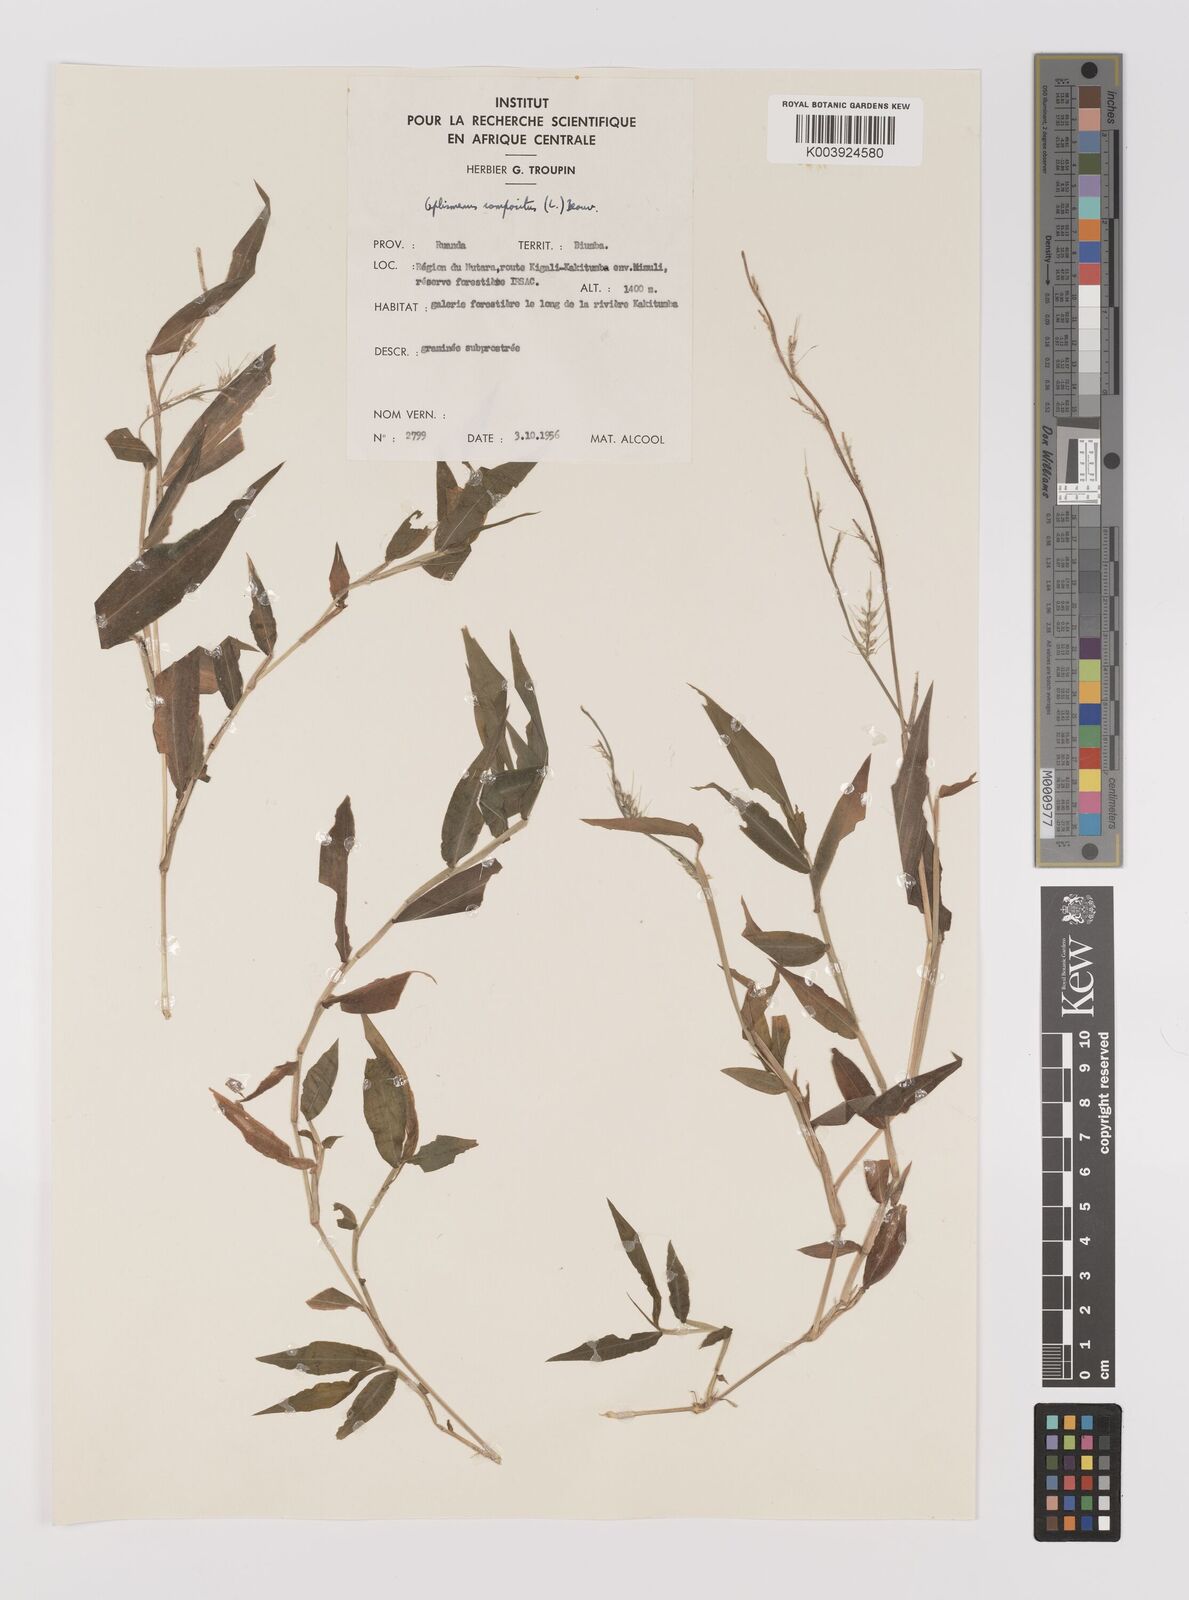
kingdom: Plantae
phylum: Tracheophyta
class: Liliopsida
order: Poales
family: Poaceae
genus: Oplismenus
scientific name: Oplismenus hirtellus
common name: Basketgrass
